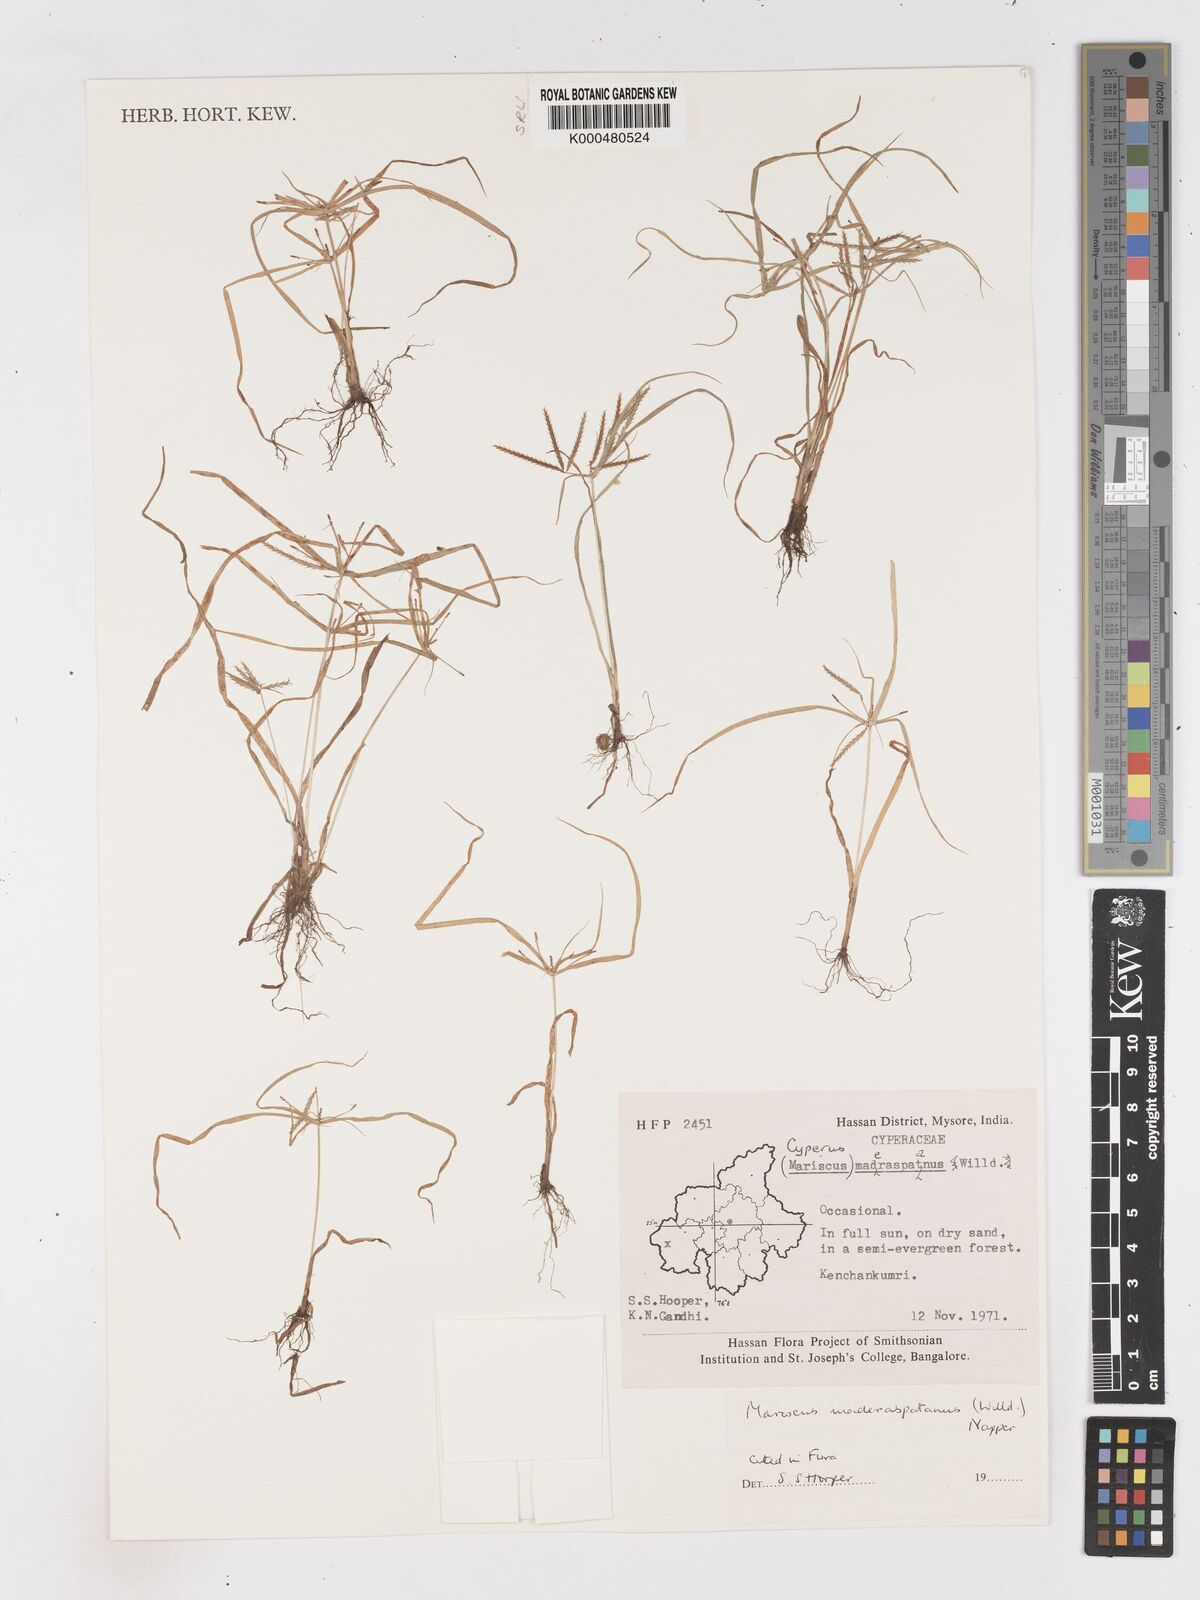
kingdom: Plantae
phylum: Tracheophyta
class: Liliopsida
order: Poales
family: Cyperaceae
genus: Cyperus
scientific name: Cyperus maderaspatanus
